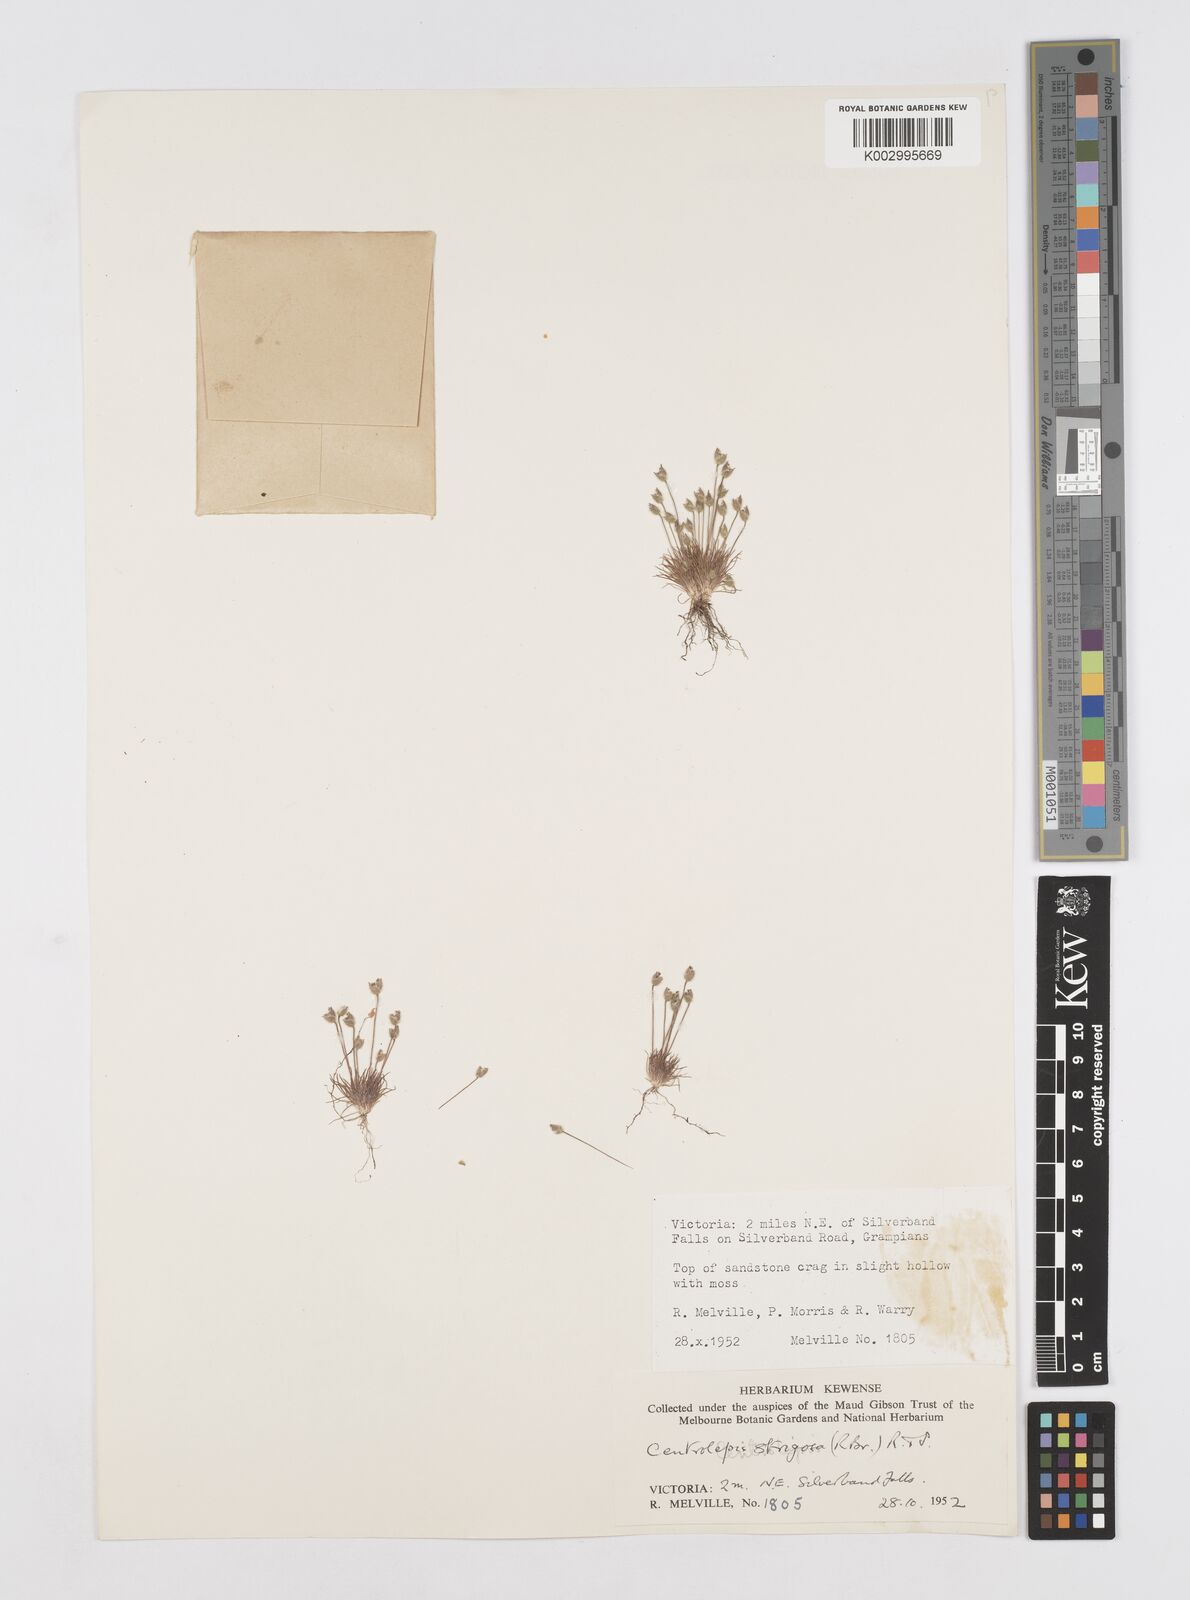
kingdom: Plantae
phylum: Tracheophyta
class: Liliopsida
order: Poales
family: Restionaceae
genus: Centrolepis
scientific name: Centrolepis strigosa
